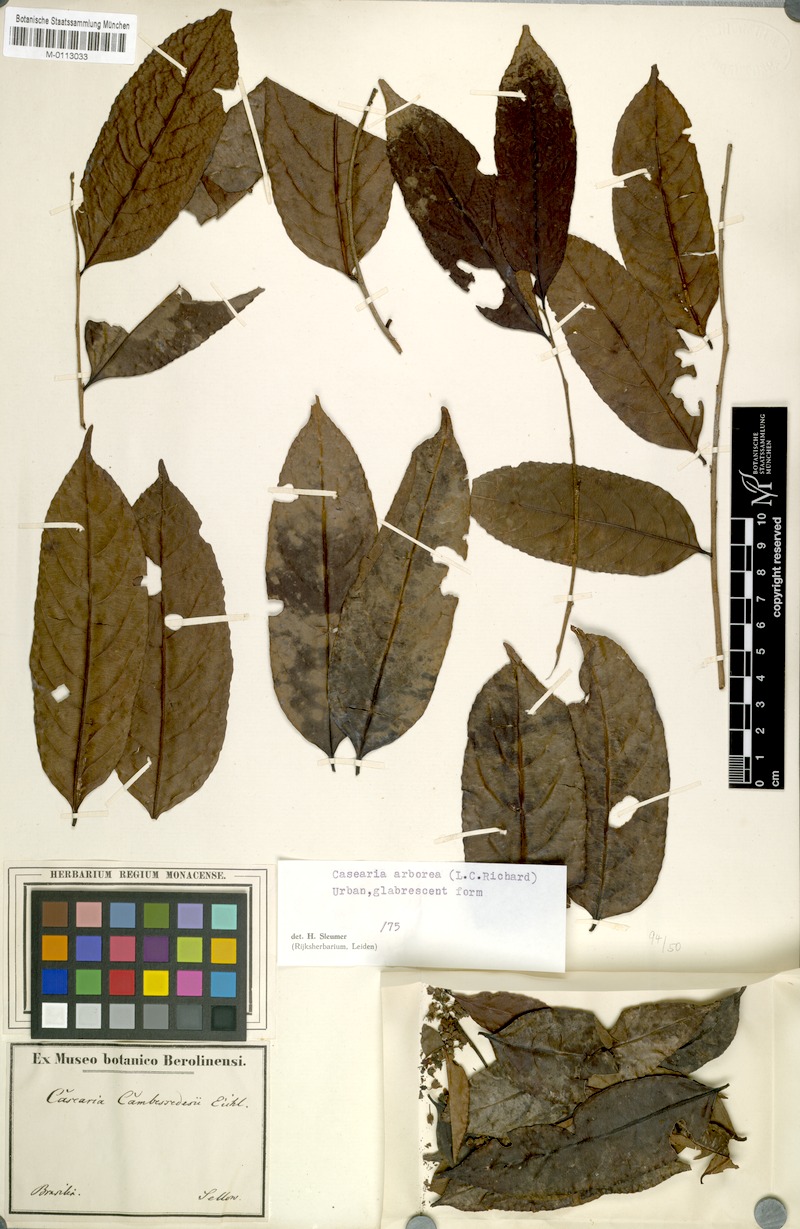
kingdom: Plantae
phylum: Tracheophyta
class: Magnoliopsida
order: Malpighiales
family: Salicaceae
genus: Casearia
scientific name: Casearia arborea
